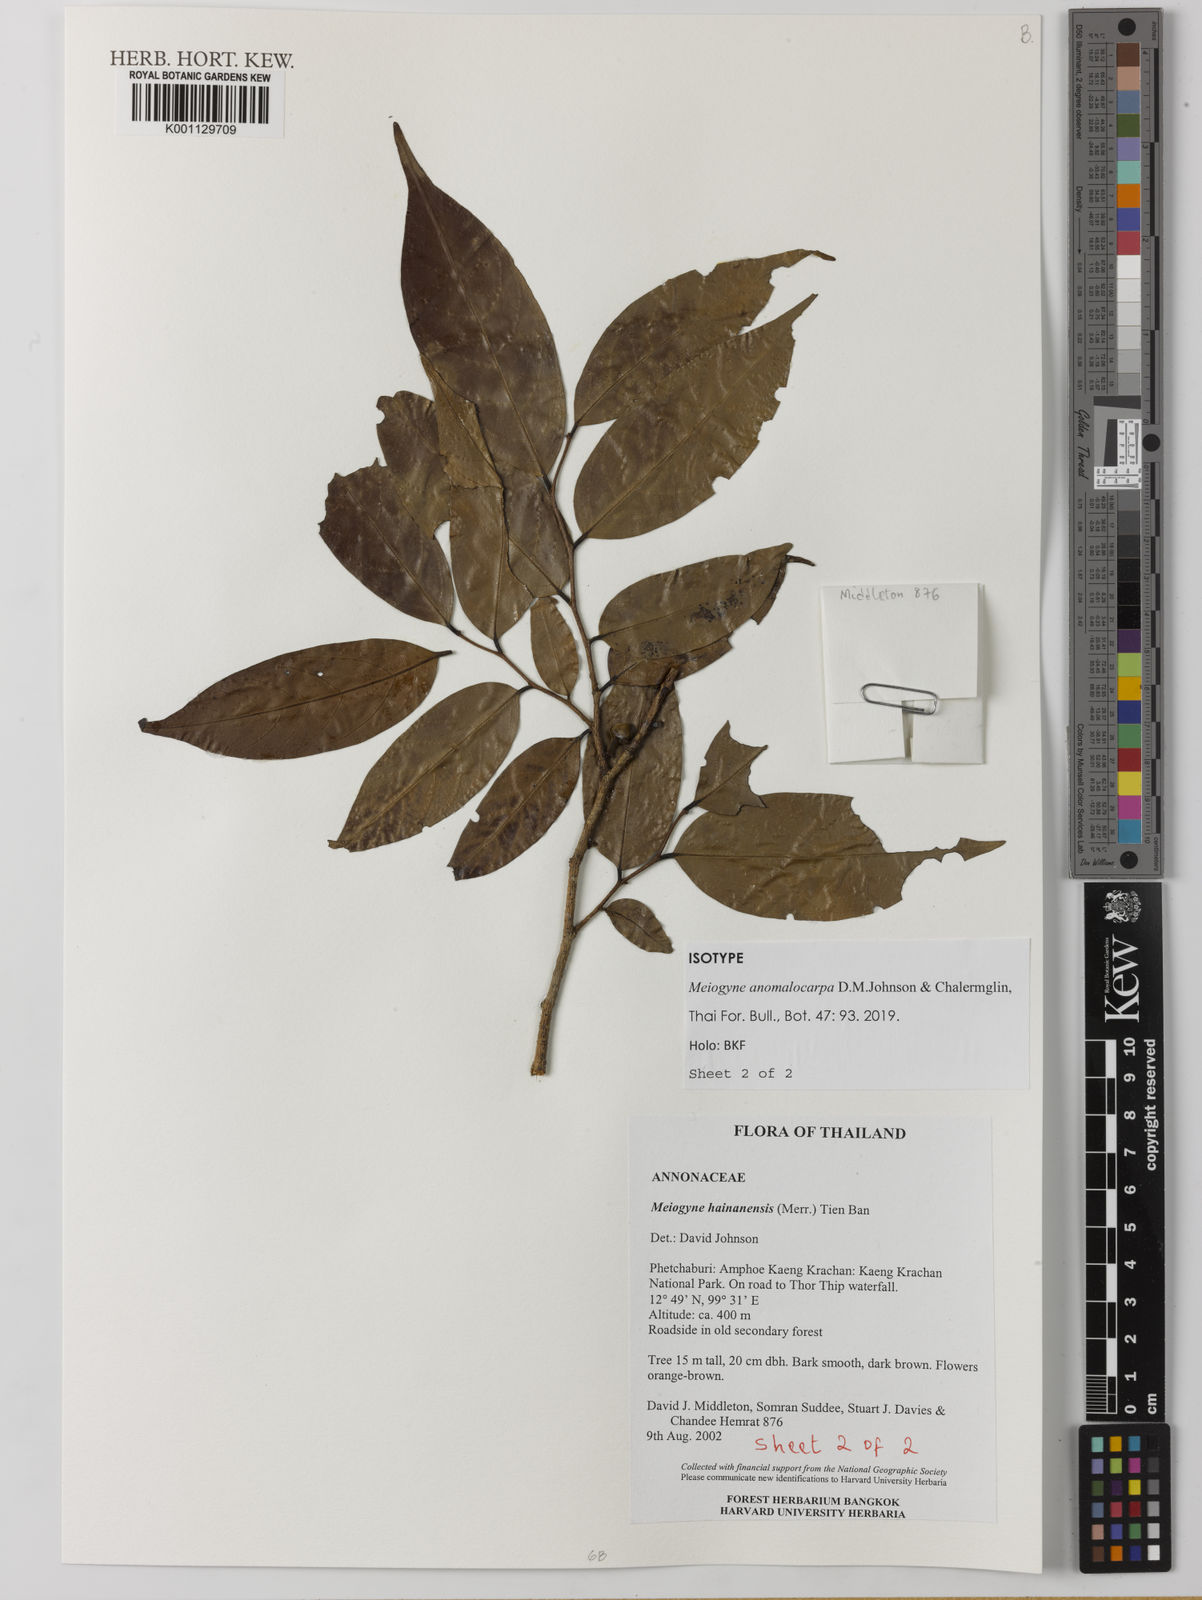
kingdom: Plantae
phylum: Tracheophyta
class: Magnoliopsida
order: Magnoliales
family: Annonaceae
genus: Meiogyne
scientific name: Meiogyne anomalocarpa
